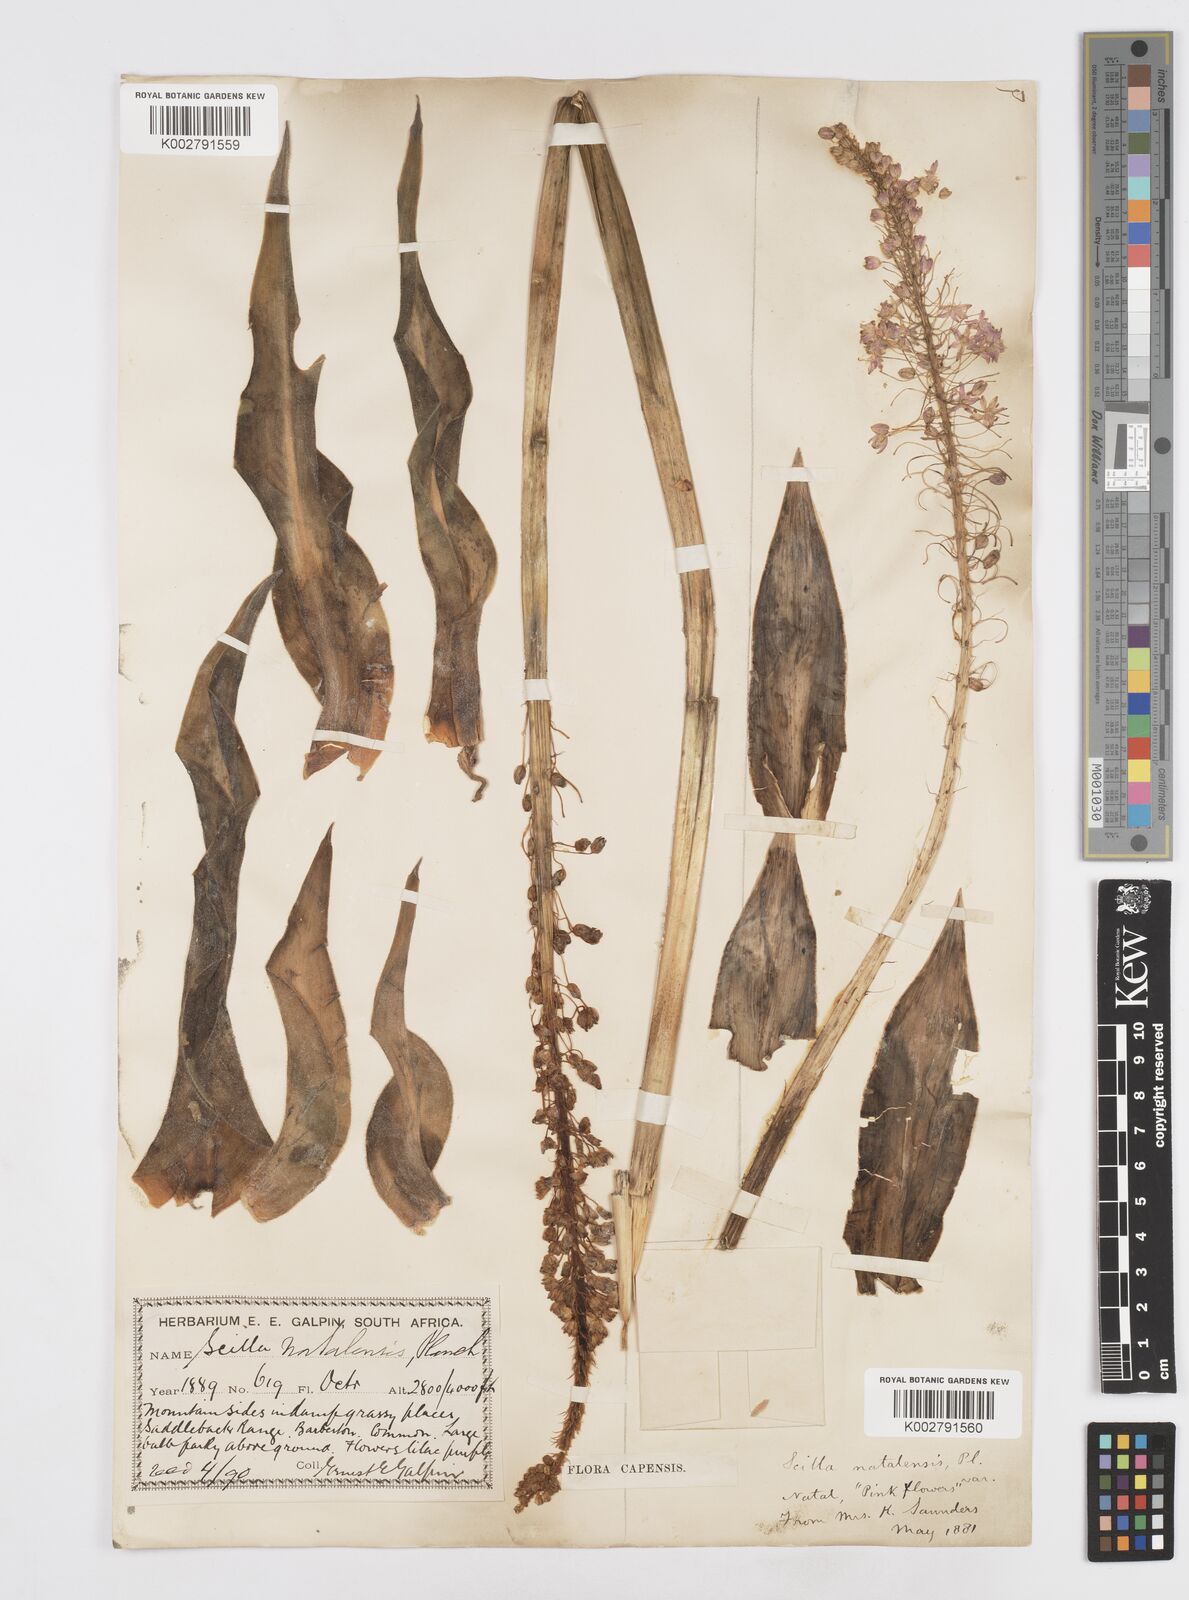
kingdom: Plantae
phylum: Tracheophyta
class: Liliopsida
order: Asparagales
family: Asparagaceae
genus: Merwilla
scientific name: Merwilla plumbea
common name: Blue-squill
